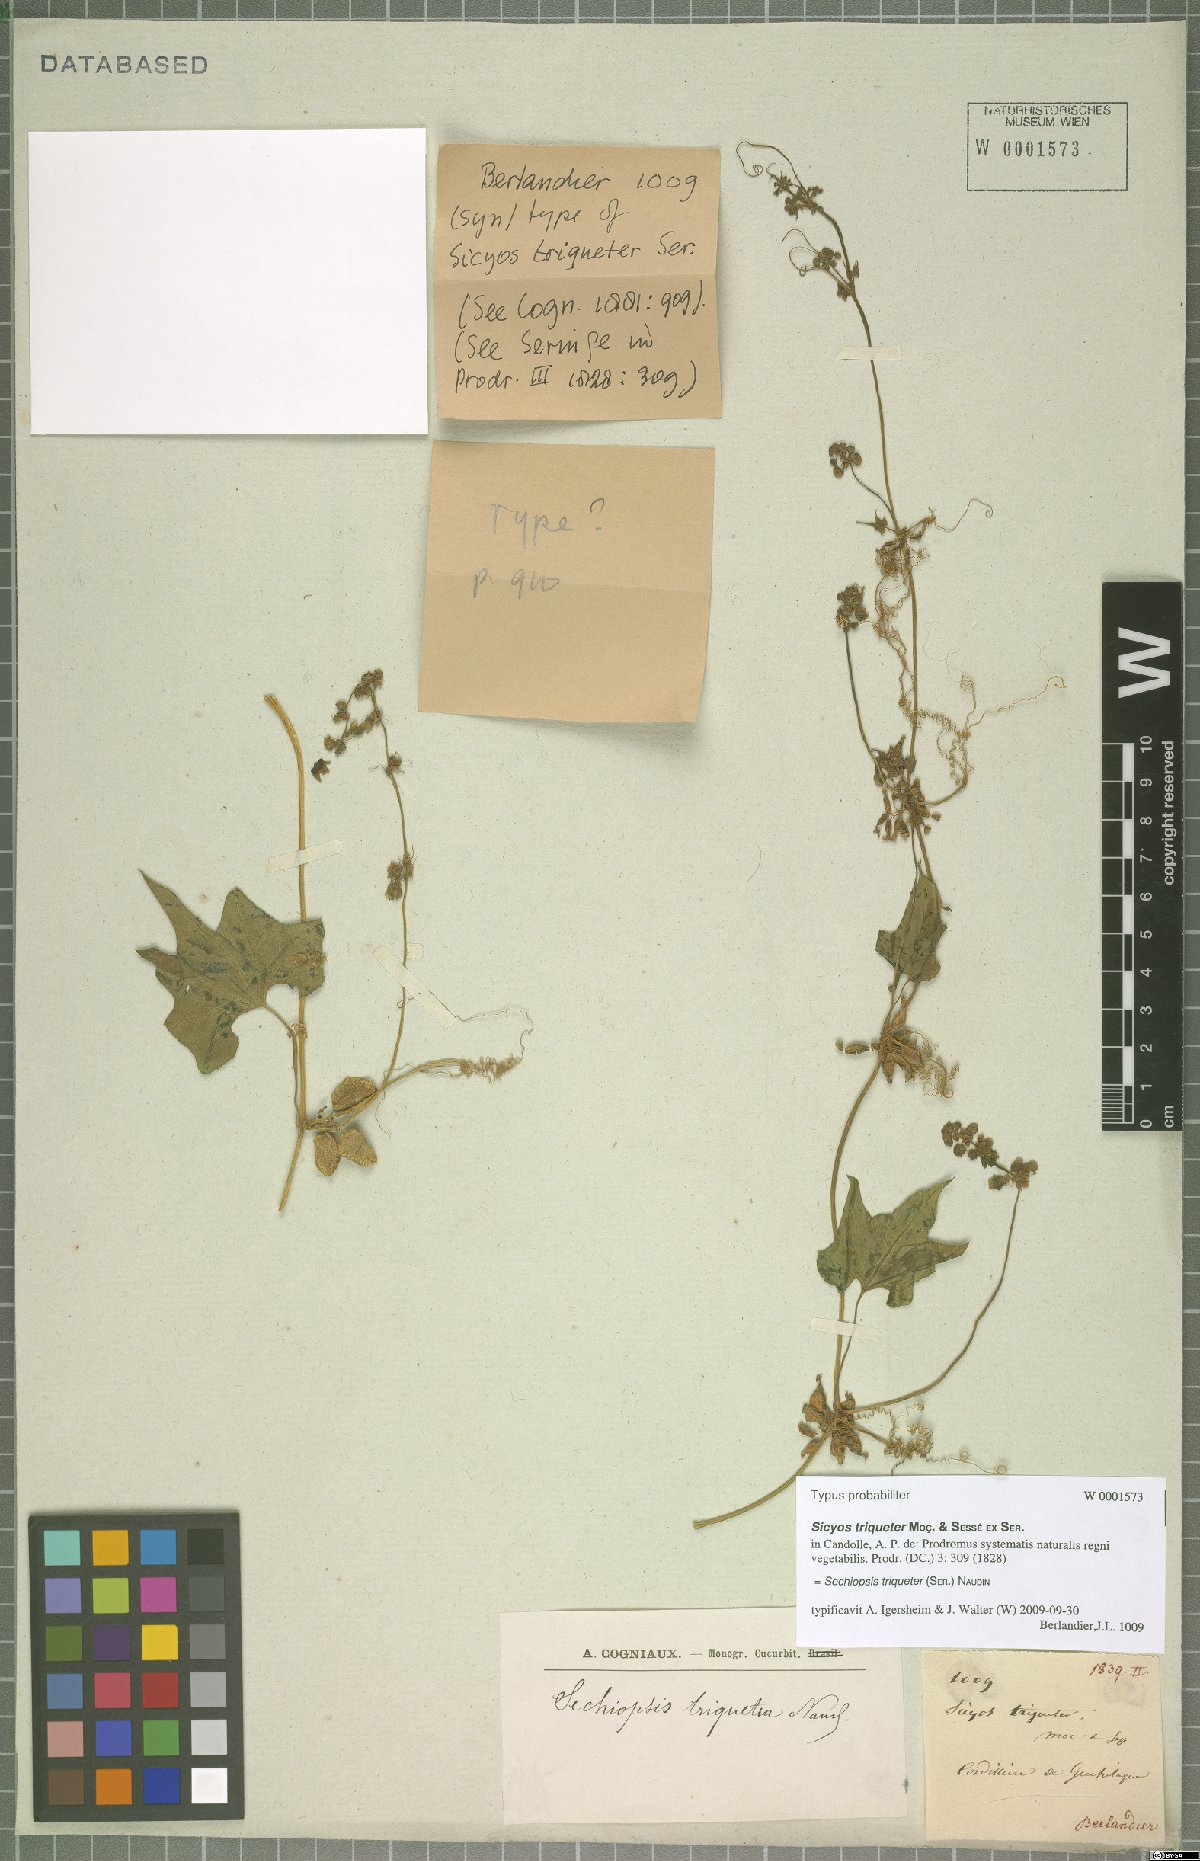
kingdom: Plantae
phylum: Tracheophyta
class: Magnoliopsida
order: Cucurbitales
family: Cucurbitaceae
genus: Sechiopsis
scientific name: Sechiopsis triqueter
